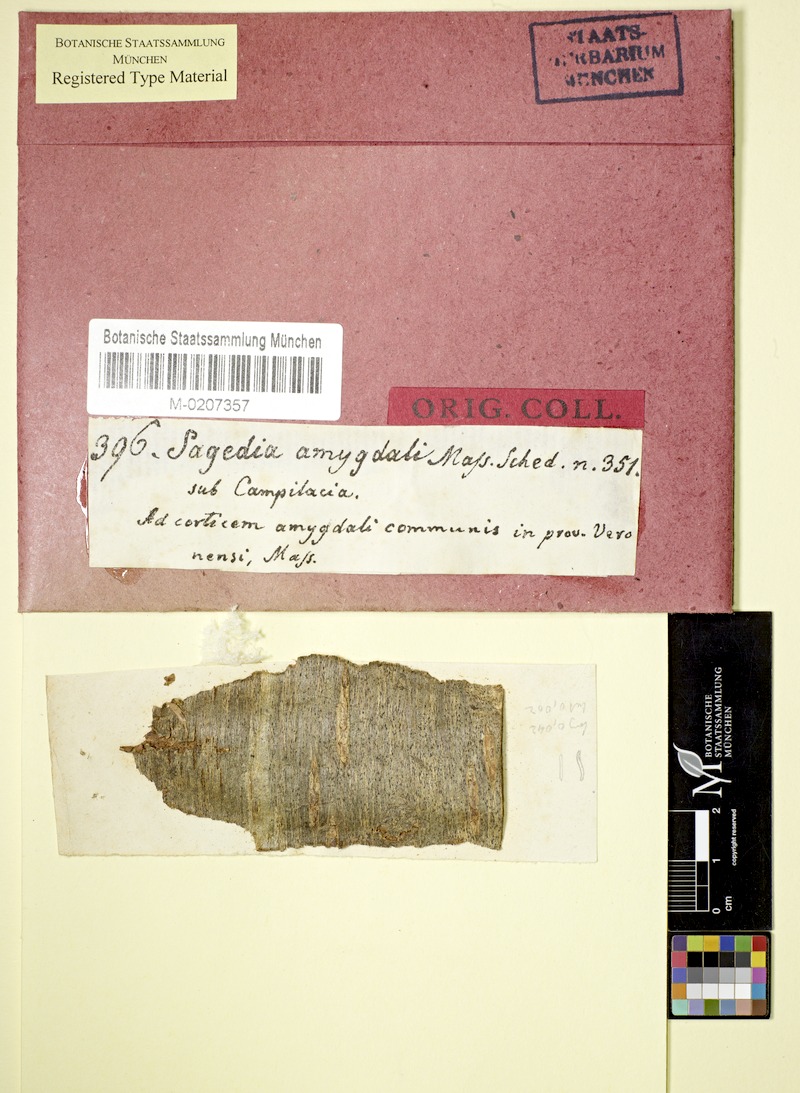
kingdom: Fungi
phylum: Ascomycota
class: Dothideomycetes
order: Pleosporales
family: Naetrocymbaceae
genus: Leptorhaphis
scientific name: Leptorhaphis amygdali
